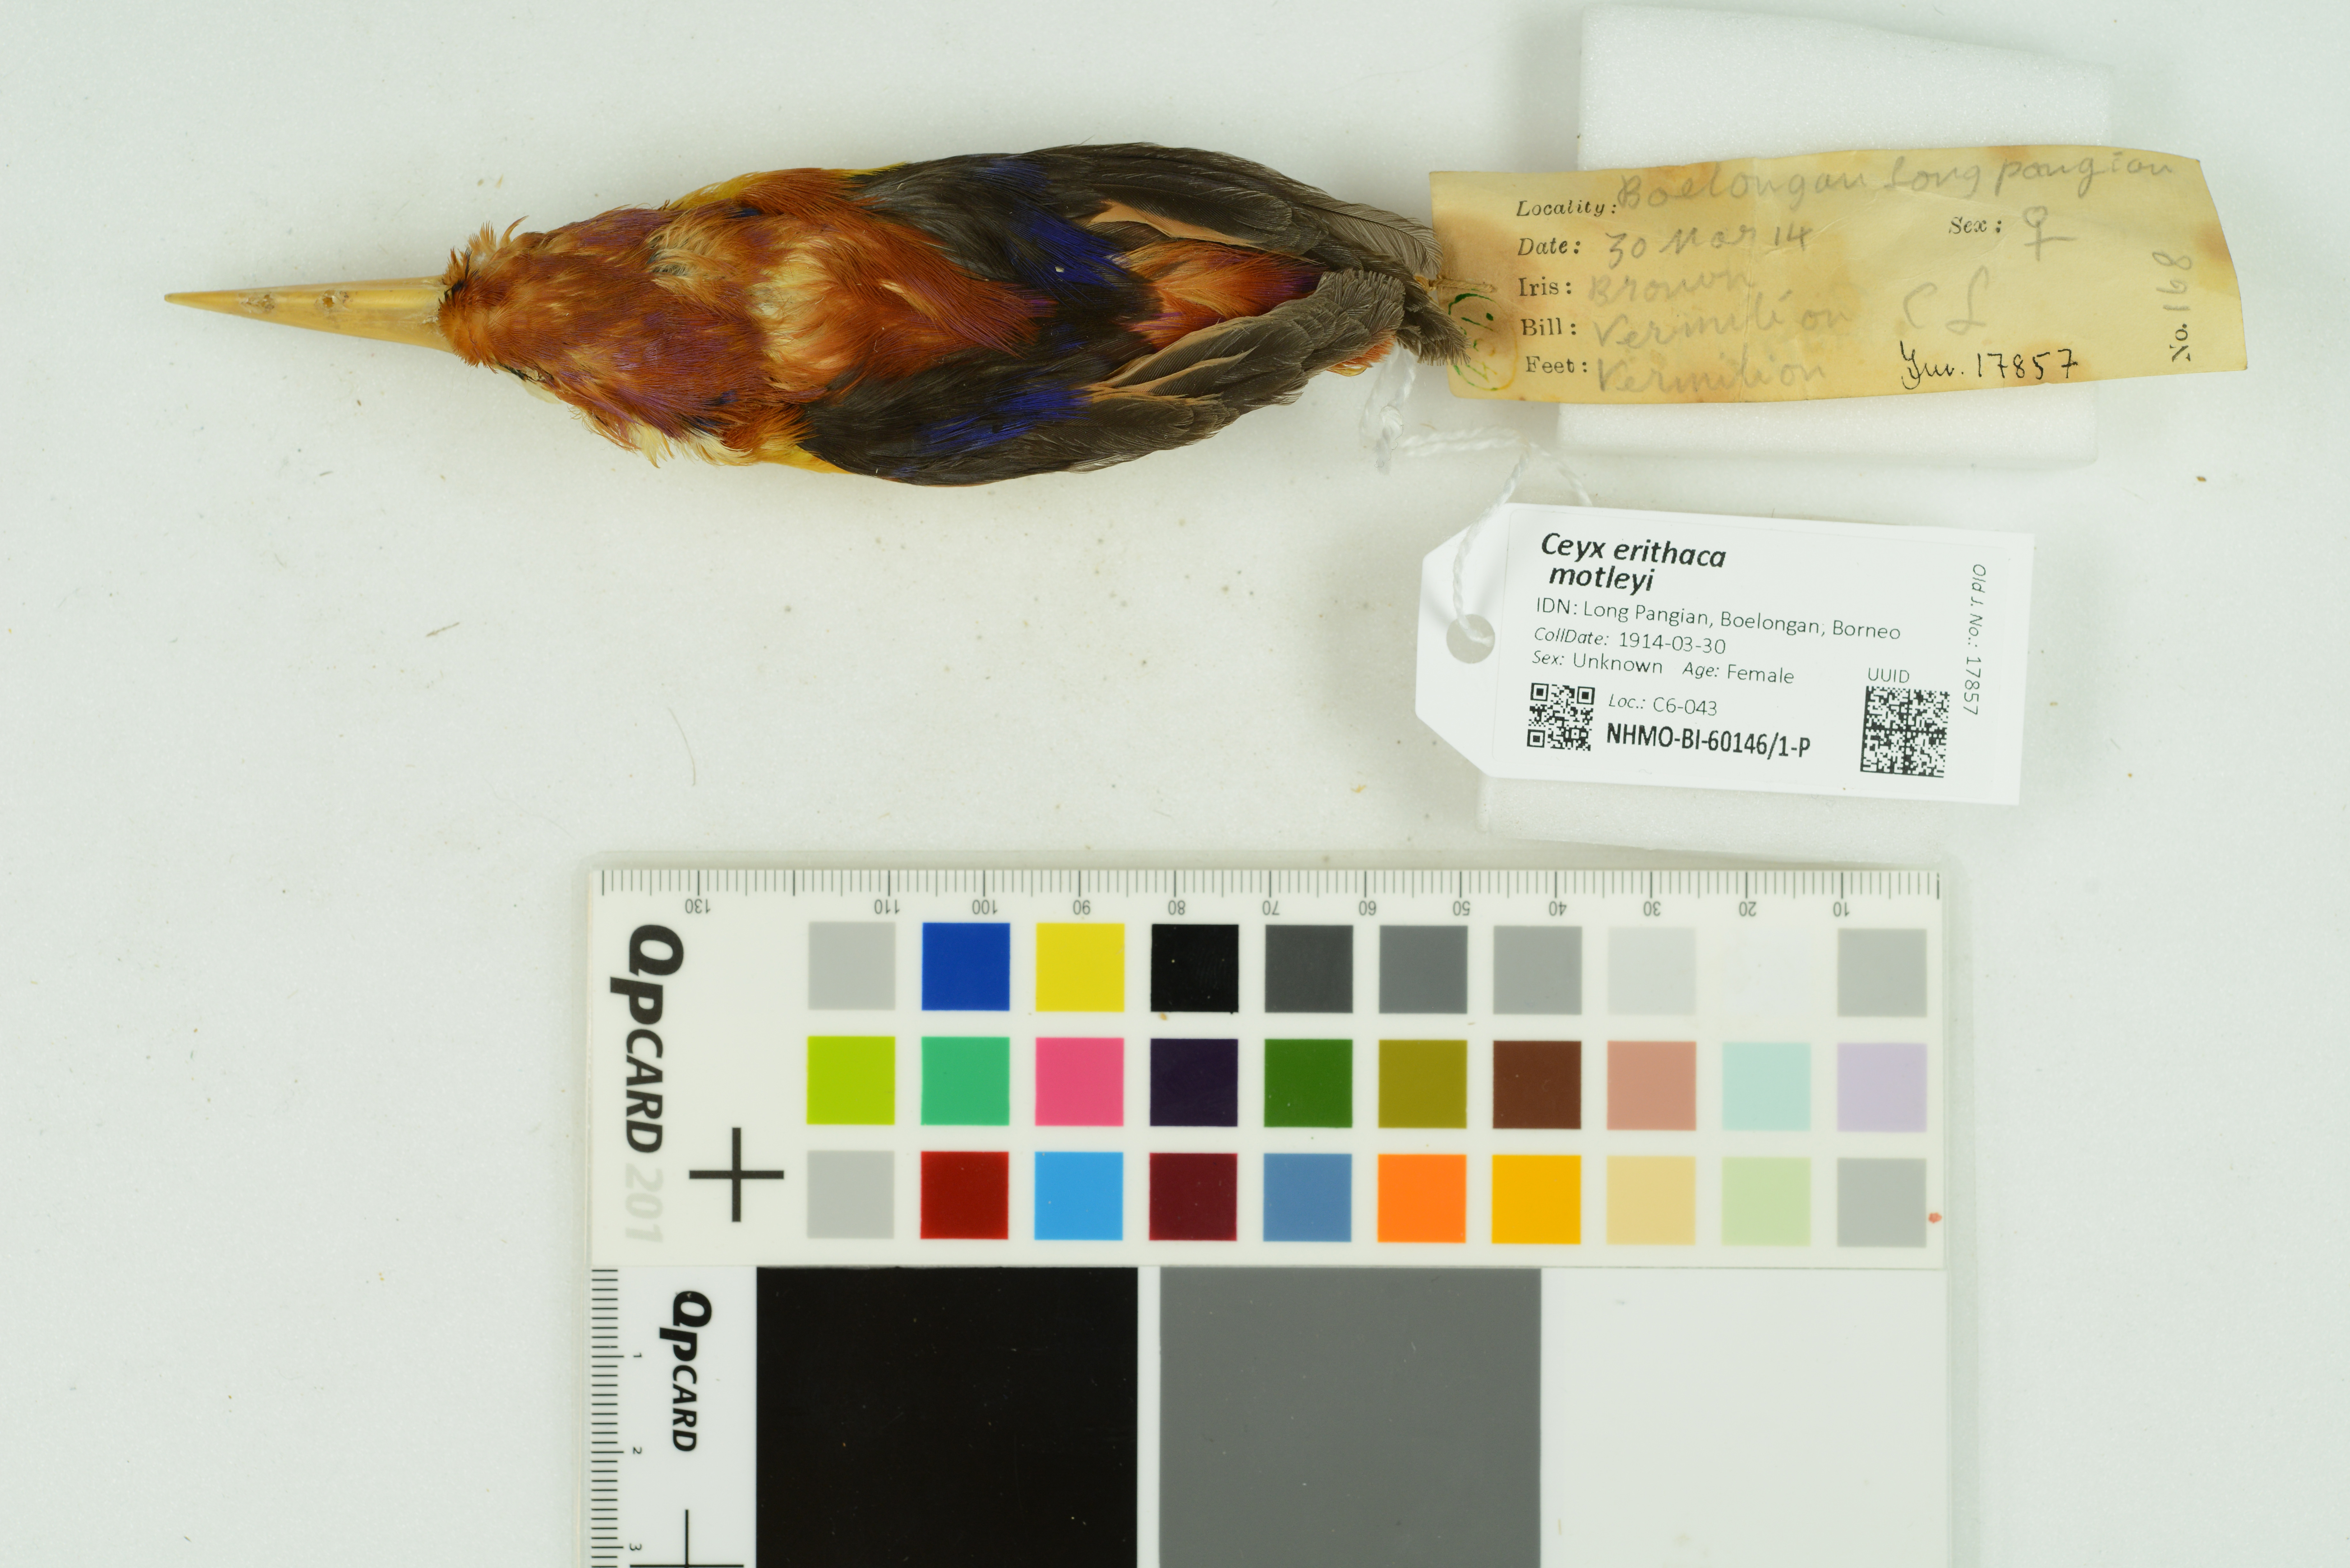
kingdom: Animalia
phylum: Chordata
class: Aves
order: Coraciiformes
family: Alcedinidae
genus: Ceyx
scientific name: Ceyx erithaca
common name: Oriental dwarf kingfisher
